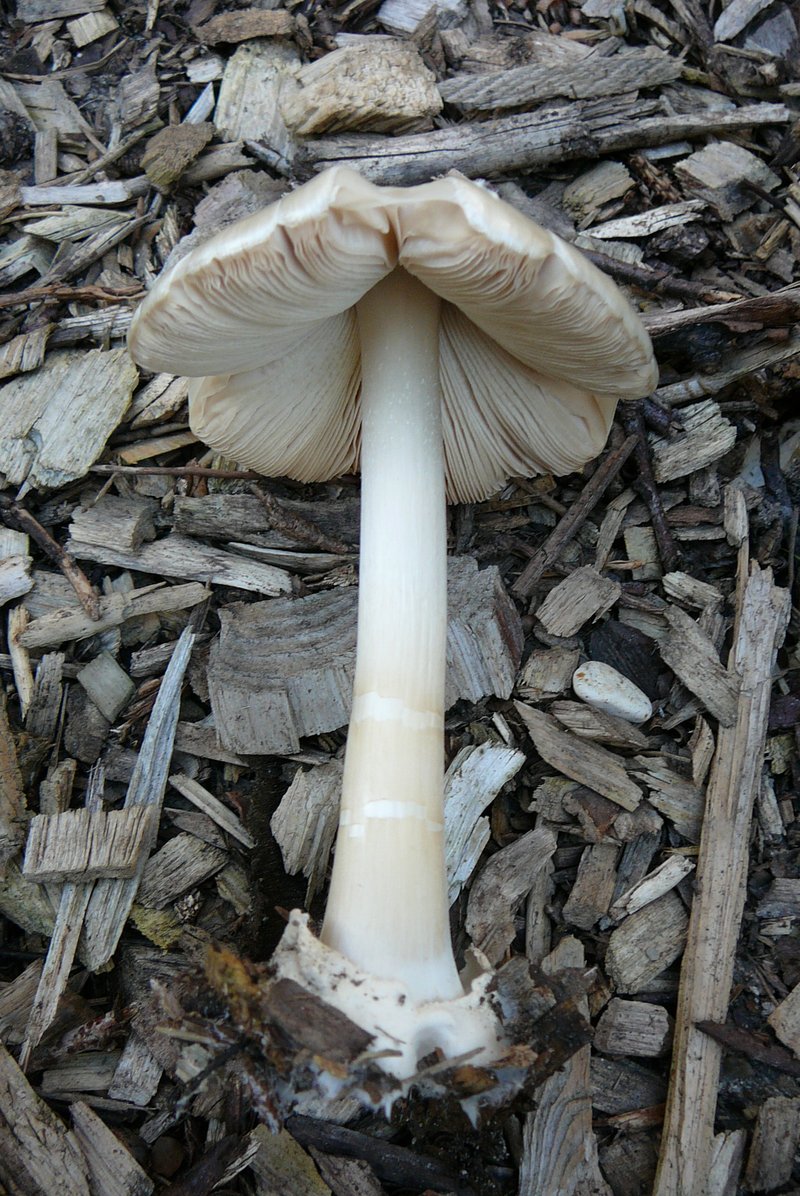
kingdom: Fungi
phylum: Basidiomycota
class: Agaricomycetes
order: Agaricales
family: Pluteaceae
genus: Volvopluteus
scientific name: Volvopluteus gloiocephalus
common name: høj posesvamp
